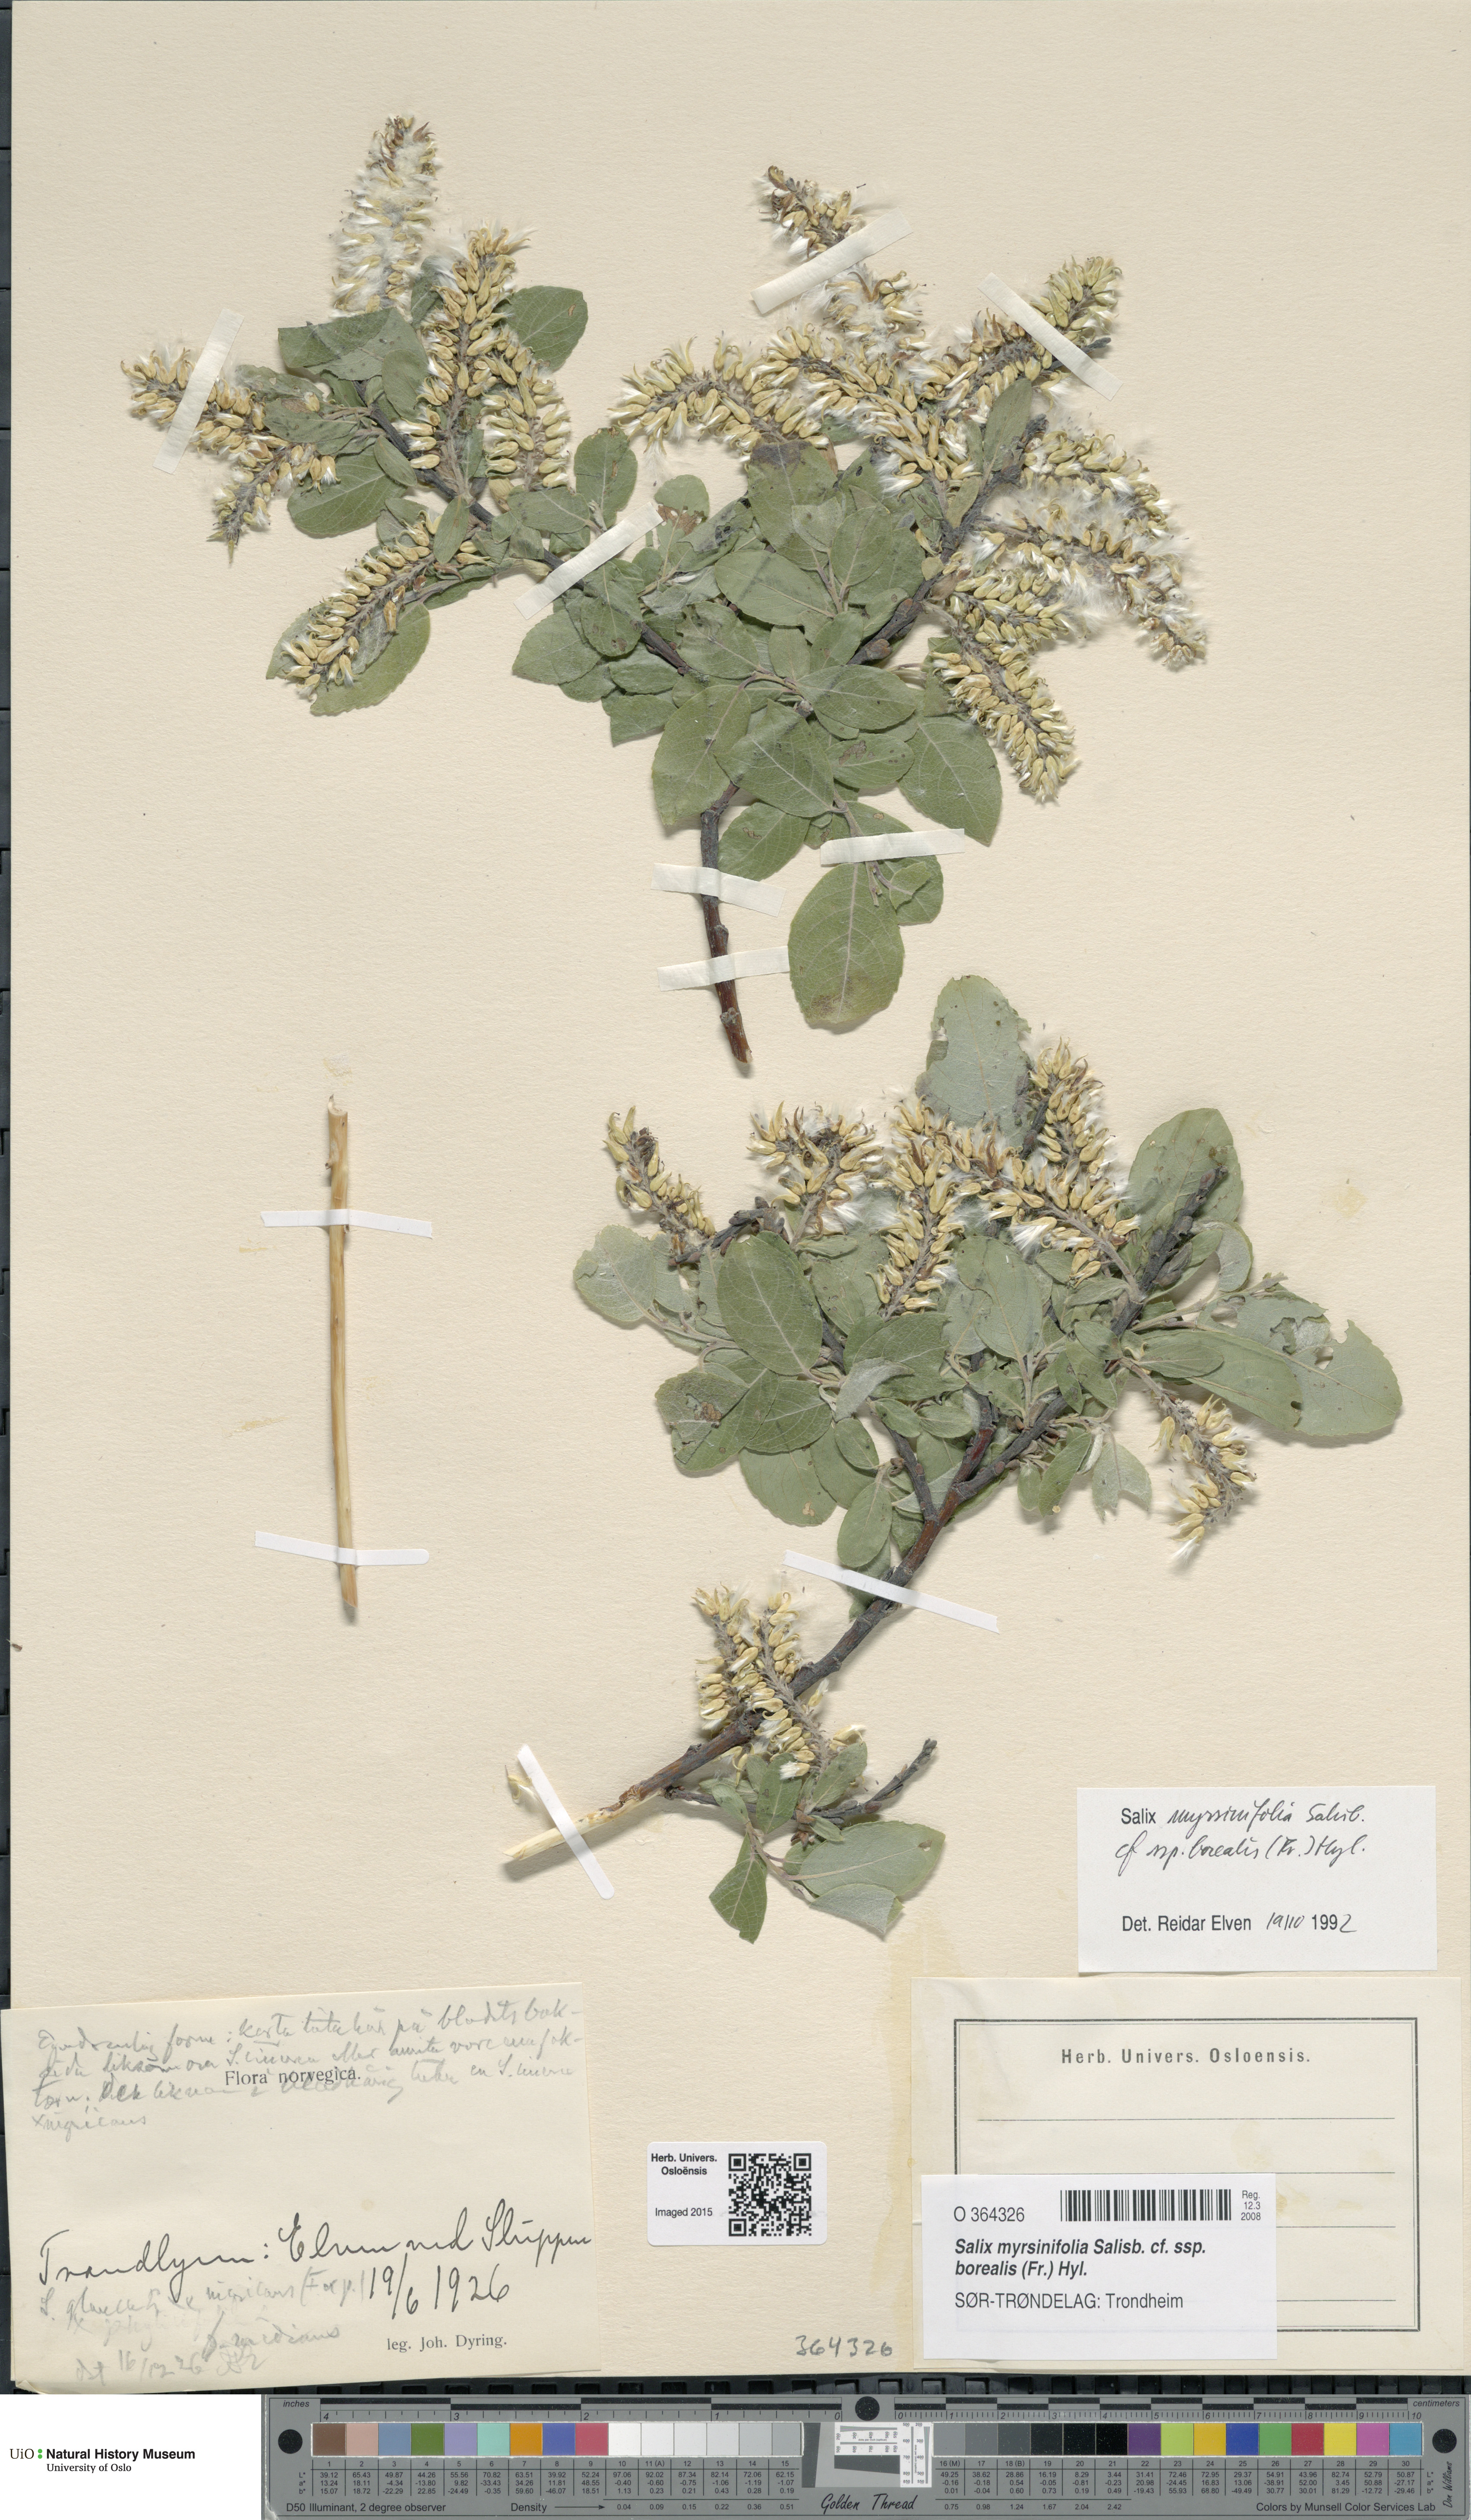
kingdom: Plantae
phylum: Tracheophyta
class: Magnoliopsida
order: Malpighiales
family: Salicaceae
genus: Salix
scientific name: Salix myrsinifolia
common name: Dark-leaved willow
